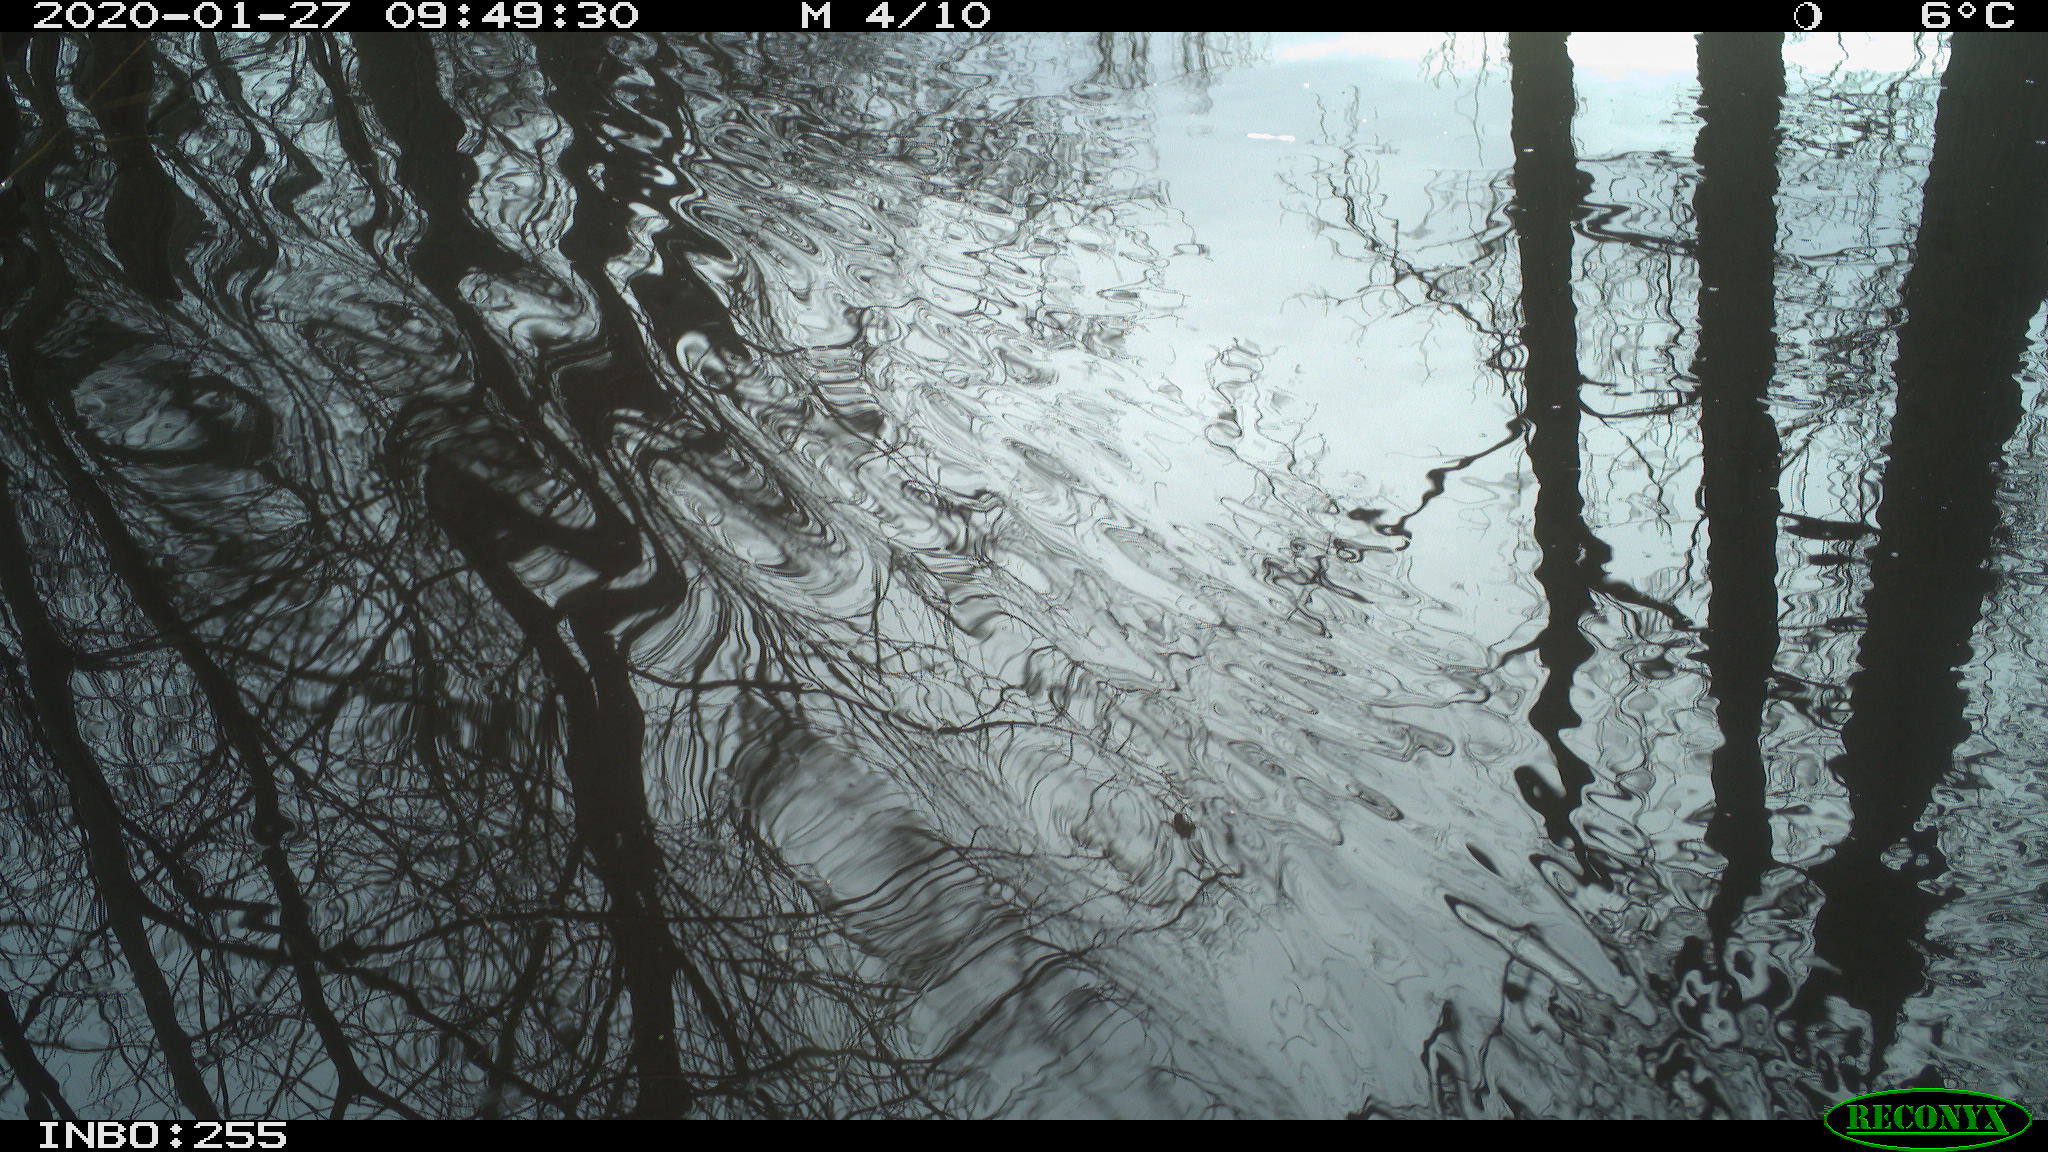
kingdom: Animalia
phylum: Chordata
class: Aves
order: Gruiformes
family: Rallidae
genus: Fulica
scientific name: Fulica atra
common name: Eurasian coot
